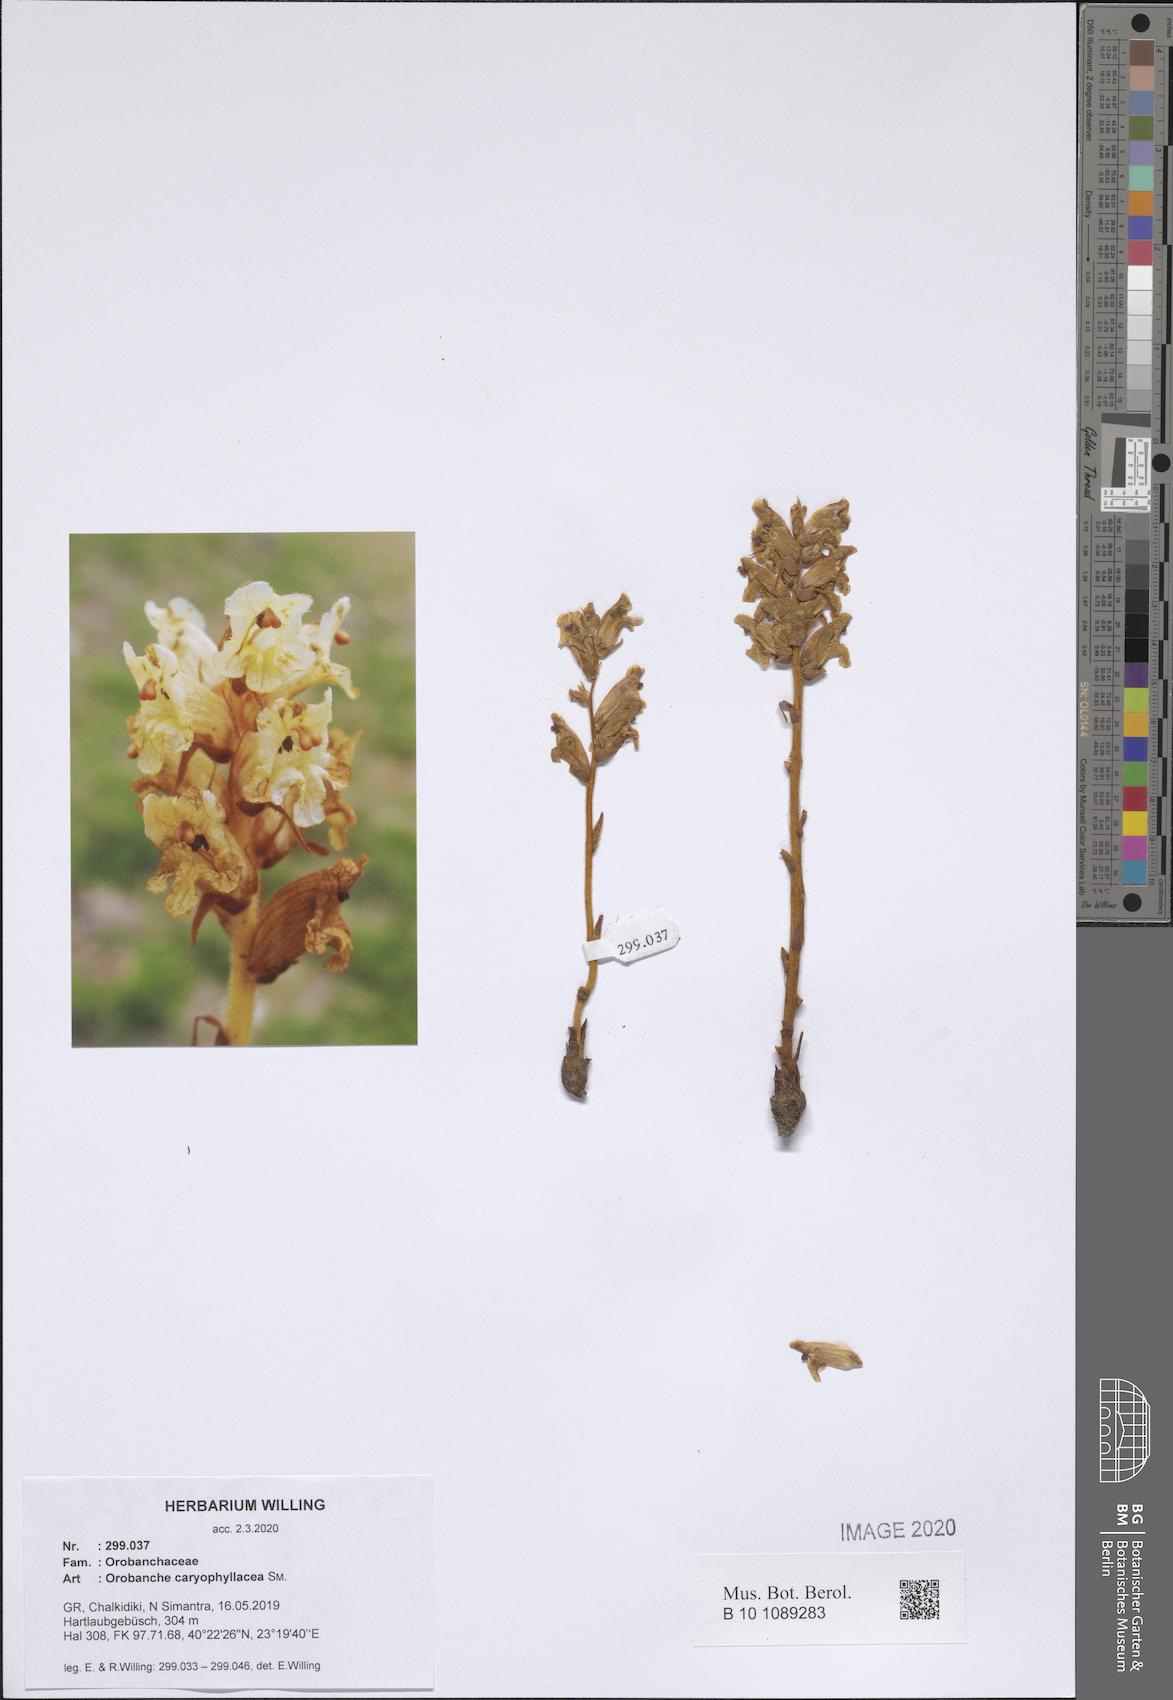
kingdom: Plantae
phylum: Tracheophyta
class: Magnoliopsida
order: Lamiales
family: Orobanchaceae
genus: Orobanche
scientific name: Orobanche caryophyllacea
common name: Bedstraw broomrape
